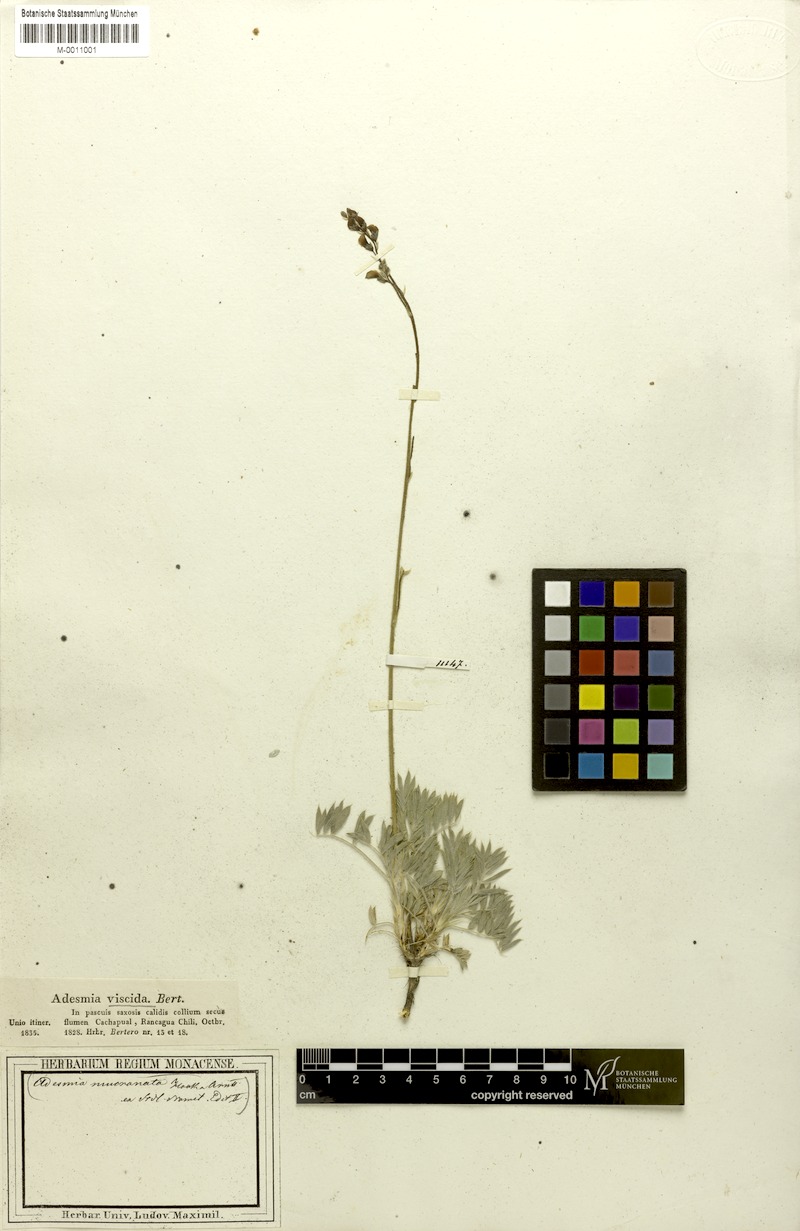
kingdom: Plantae
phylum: Tracheophyta
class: Magnoliopsida
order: Fabales
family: Fabaceae
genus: Adesmia
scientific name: Adesmia viscida
